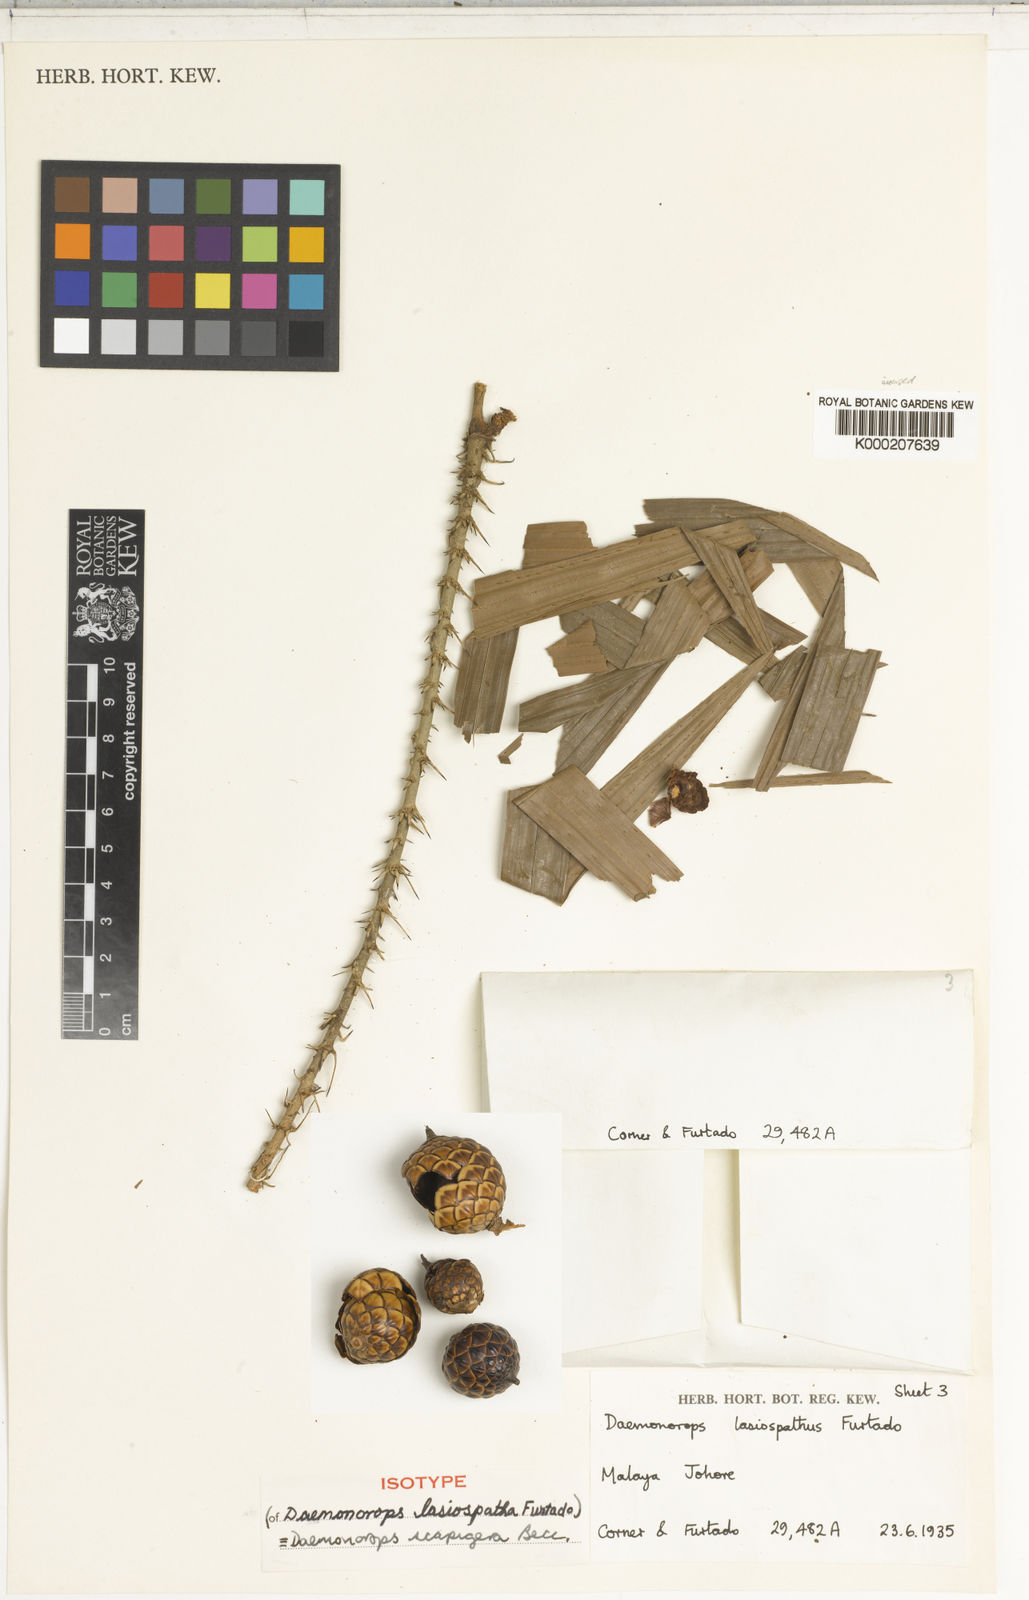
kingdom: Plantae
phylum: Tracheophyta
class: Liliopsida
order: Arecales
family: Arecaceae
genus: Calamus
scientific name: Calamus scapigerus
